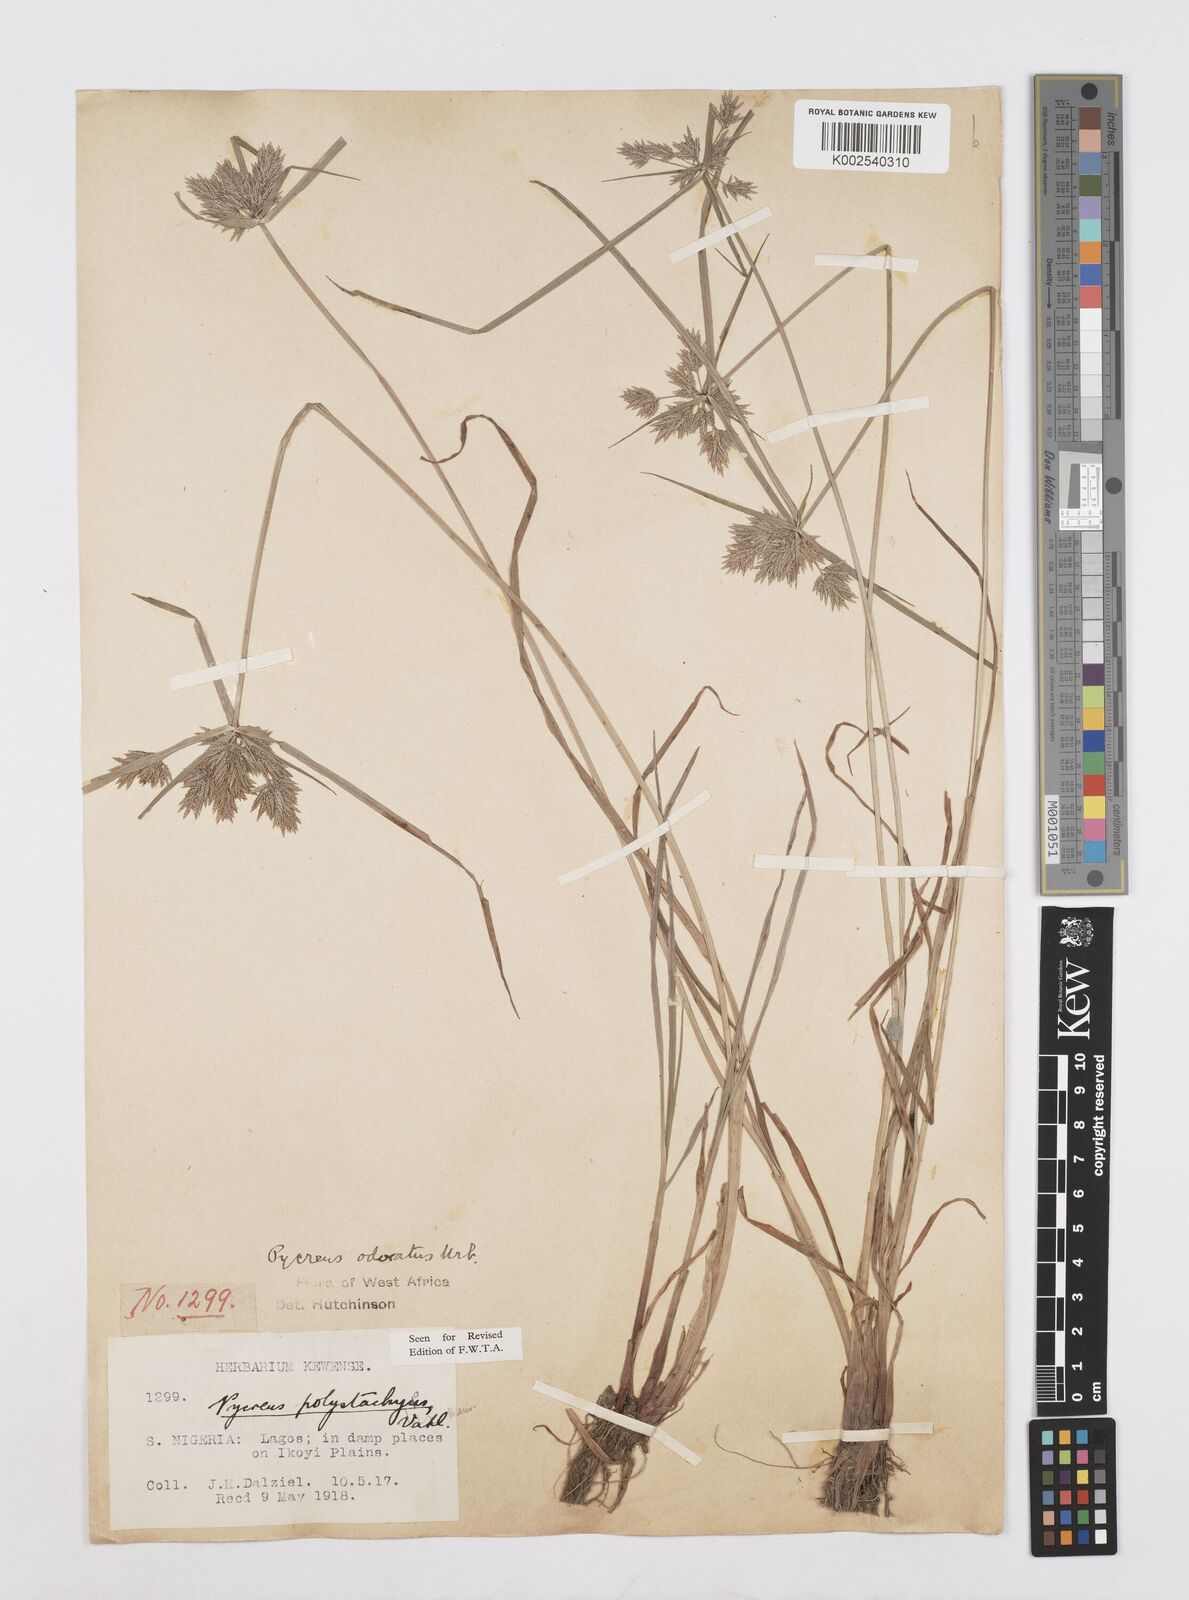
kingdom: Plantae
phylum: Tracheophyta
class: Liliopsida
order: Poales
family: Cyperaceae
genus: Cyperus
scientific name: Cyperus polystachyos
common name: Bunchy flat sedge
